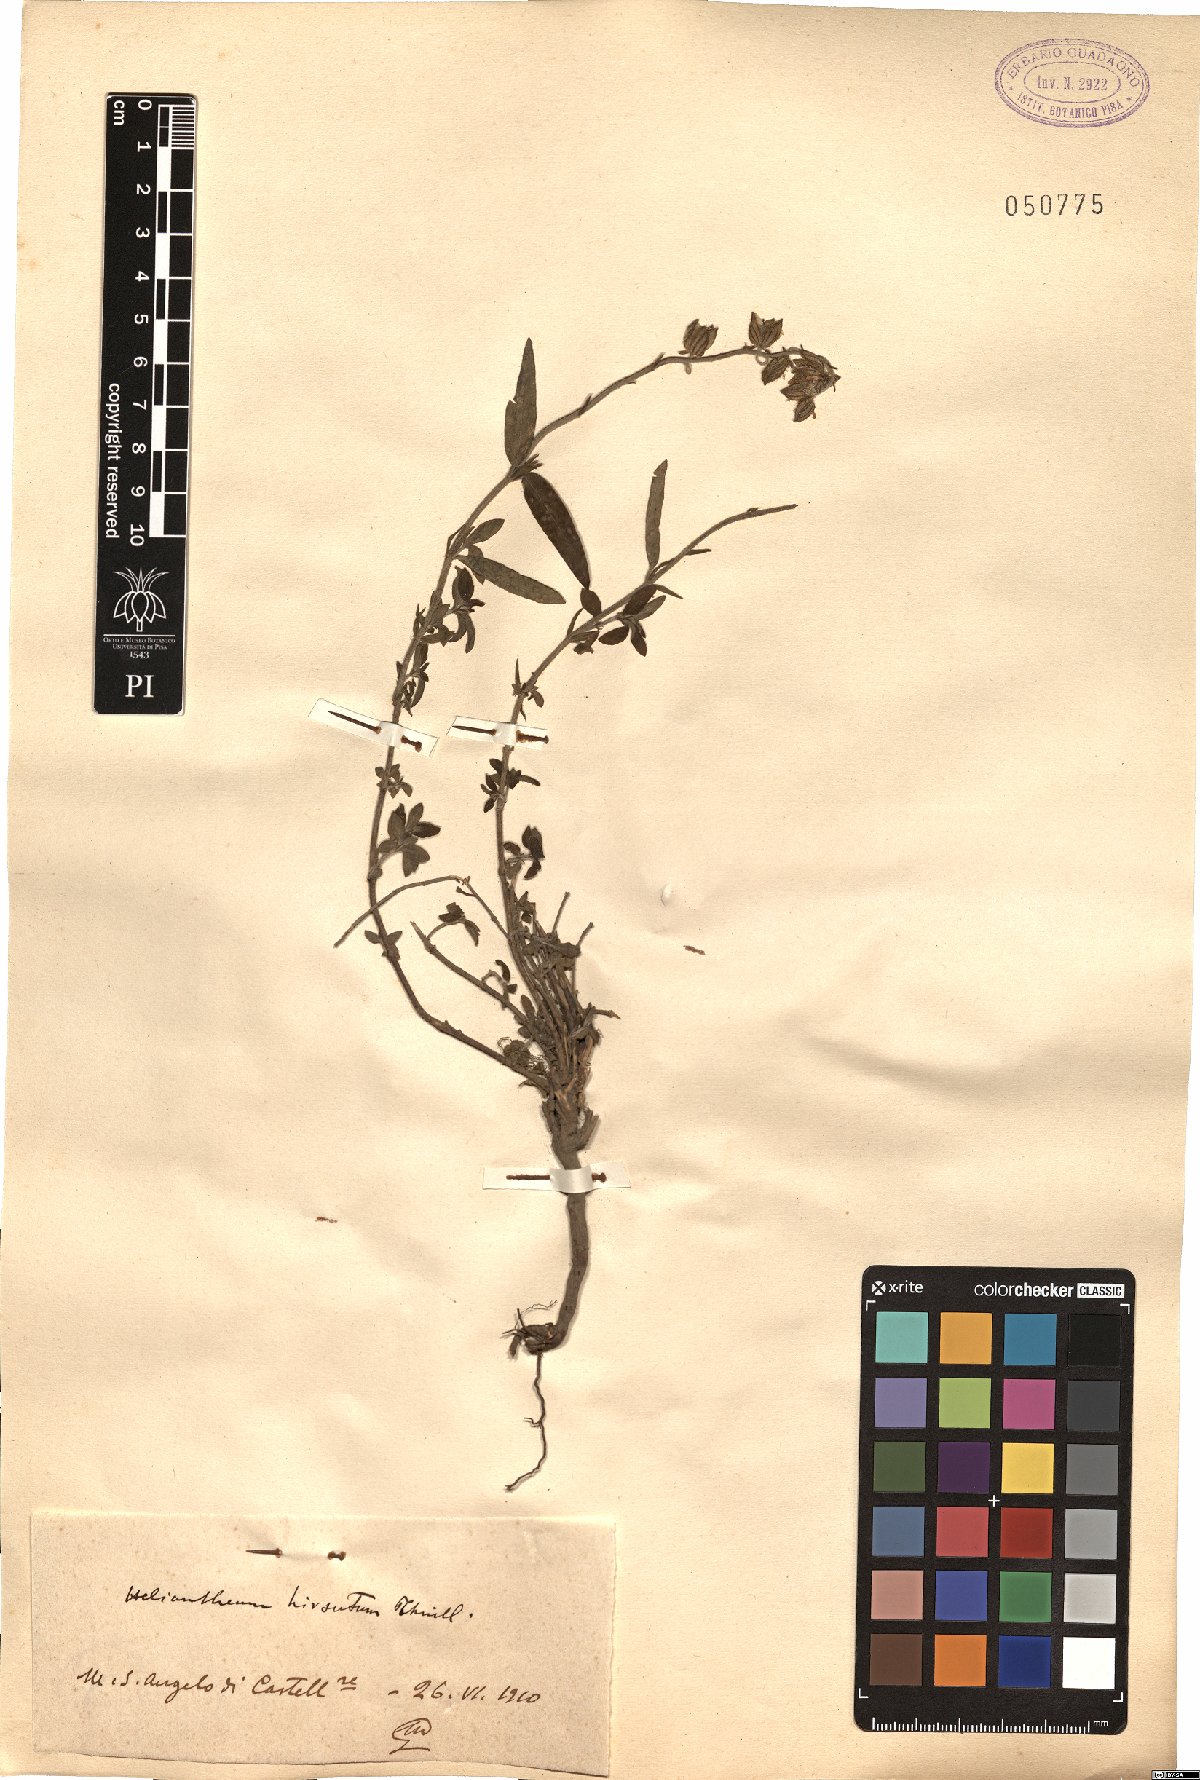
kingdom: Plantae
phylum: Tracheophyta
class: Magnoliopsida
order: Malvales
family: Cistaceae
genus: Helianthemum
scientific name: Helianthemum nummularium
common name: Common rock-rose
